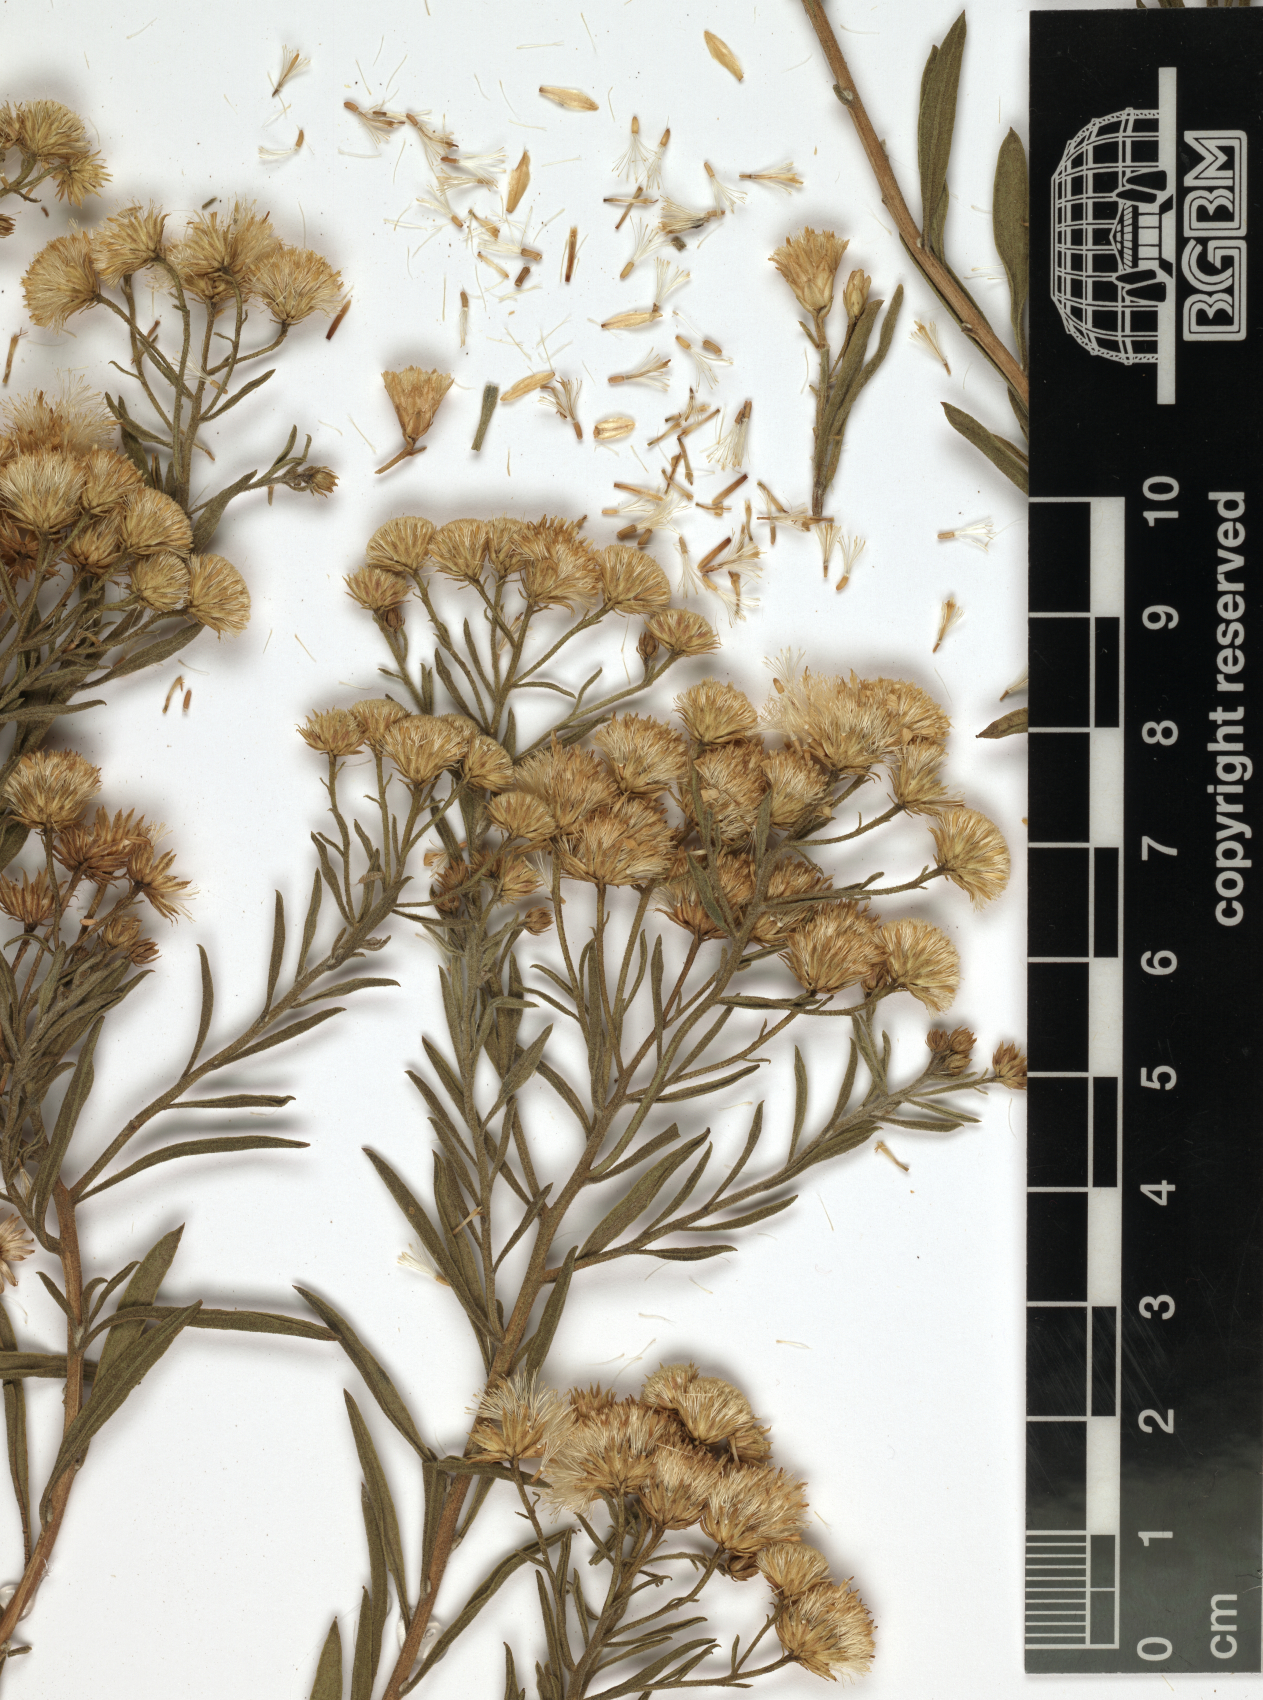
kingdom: Plantae
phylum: Tracheophyta
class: Magnoliopsida
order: Asterales
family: Asteraceae
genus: Pulicaria
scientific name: Pulicaria somalensis
